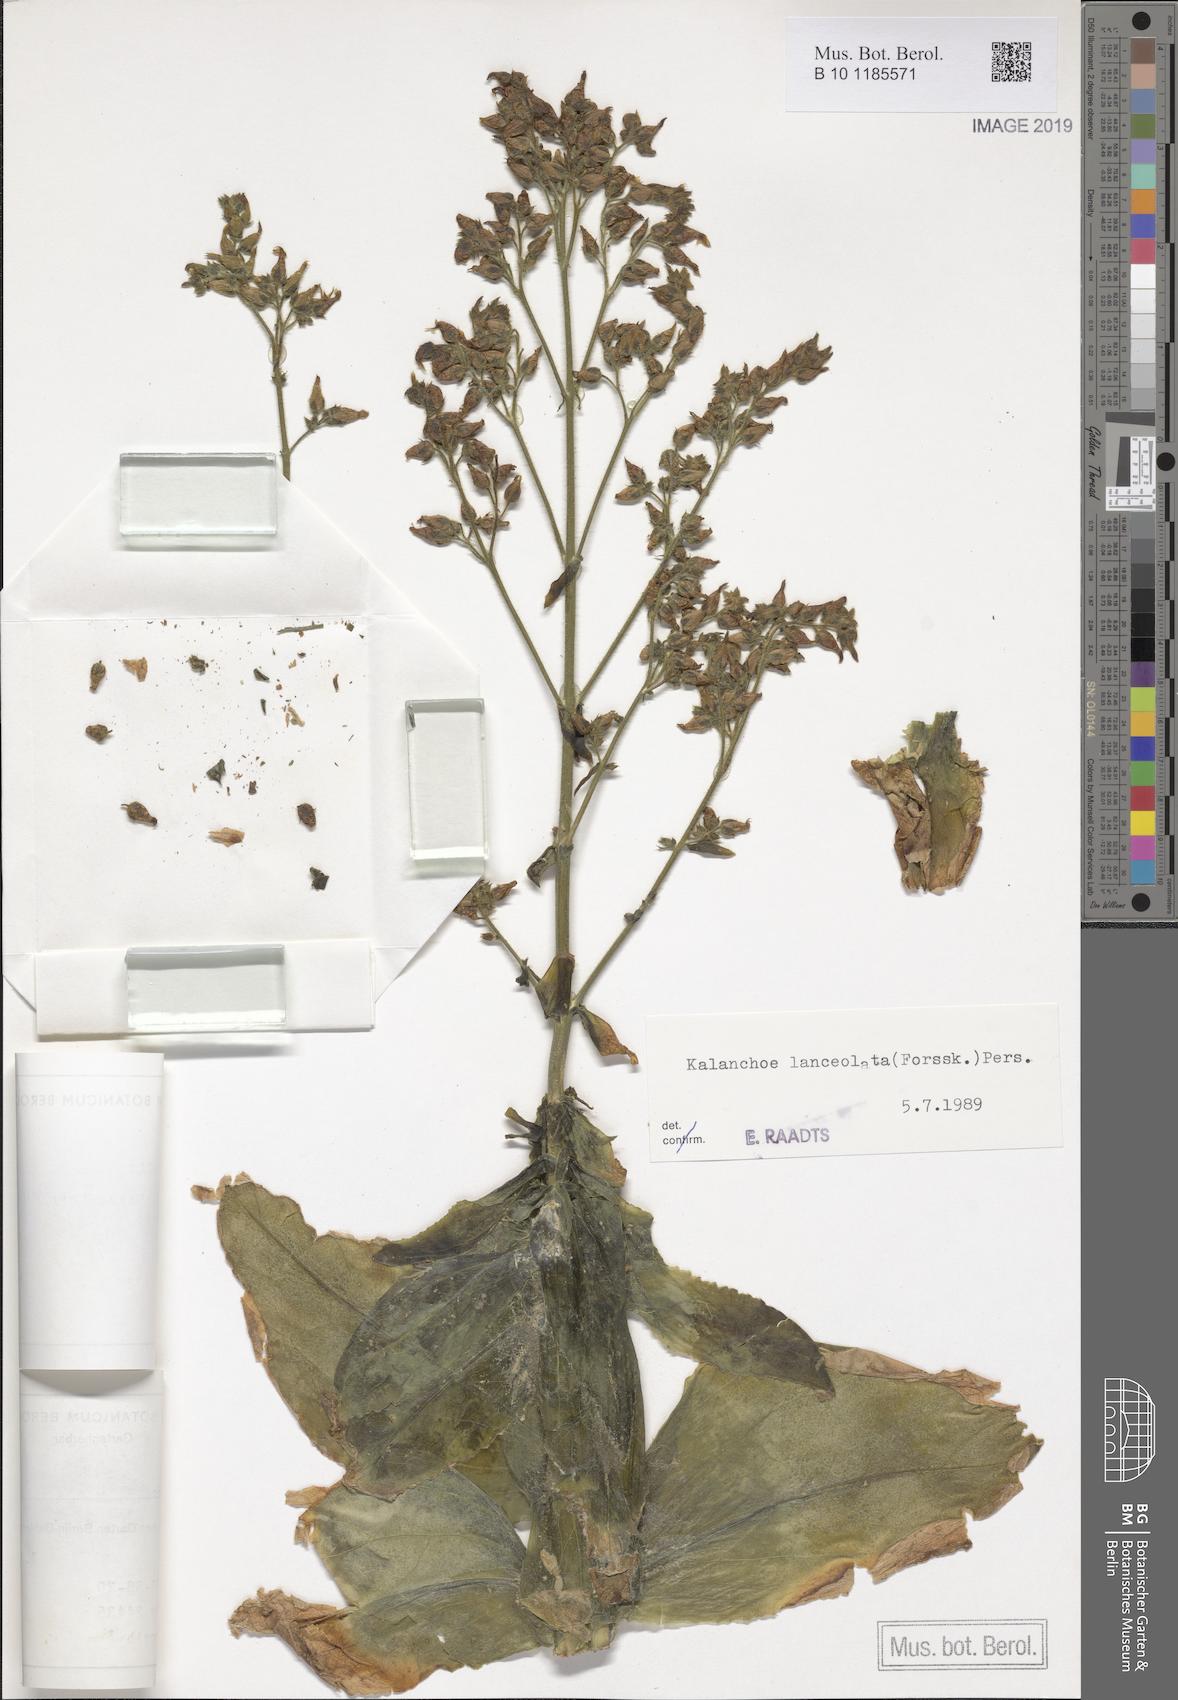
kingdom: Plantae
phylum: Tracheophyta
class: Magnoliopsida
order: Saxifragales
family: Crassulaceae
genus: Kalanchoe
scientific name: Kalanchoe lanceolata
